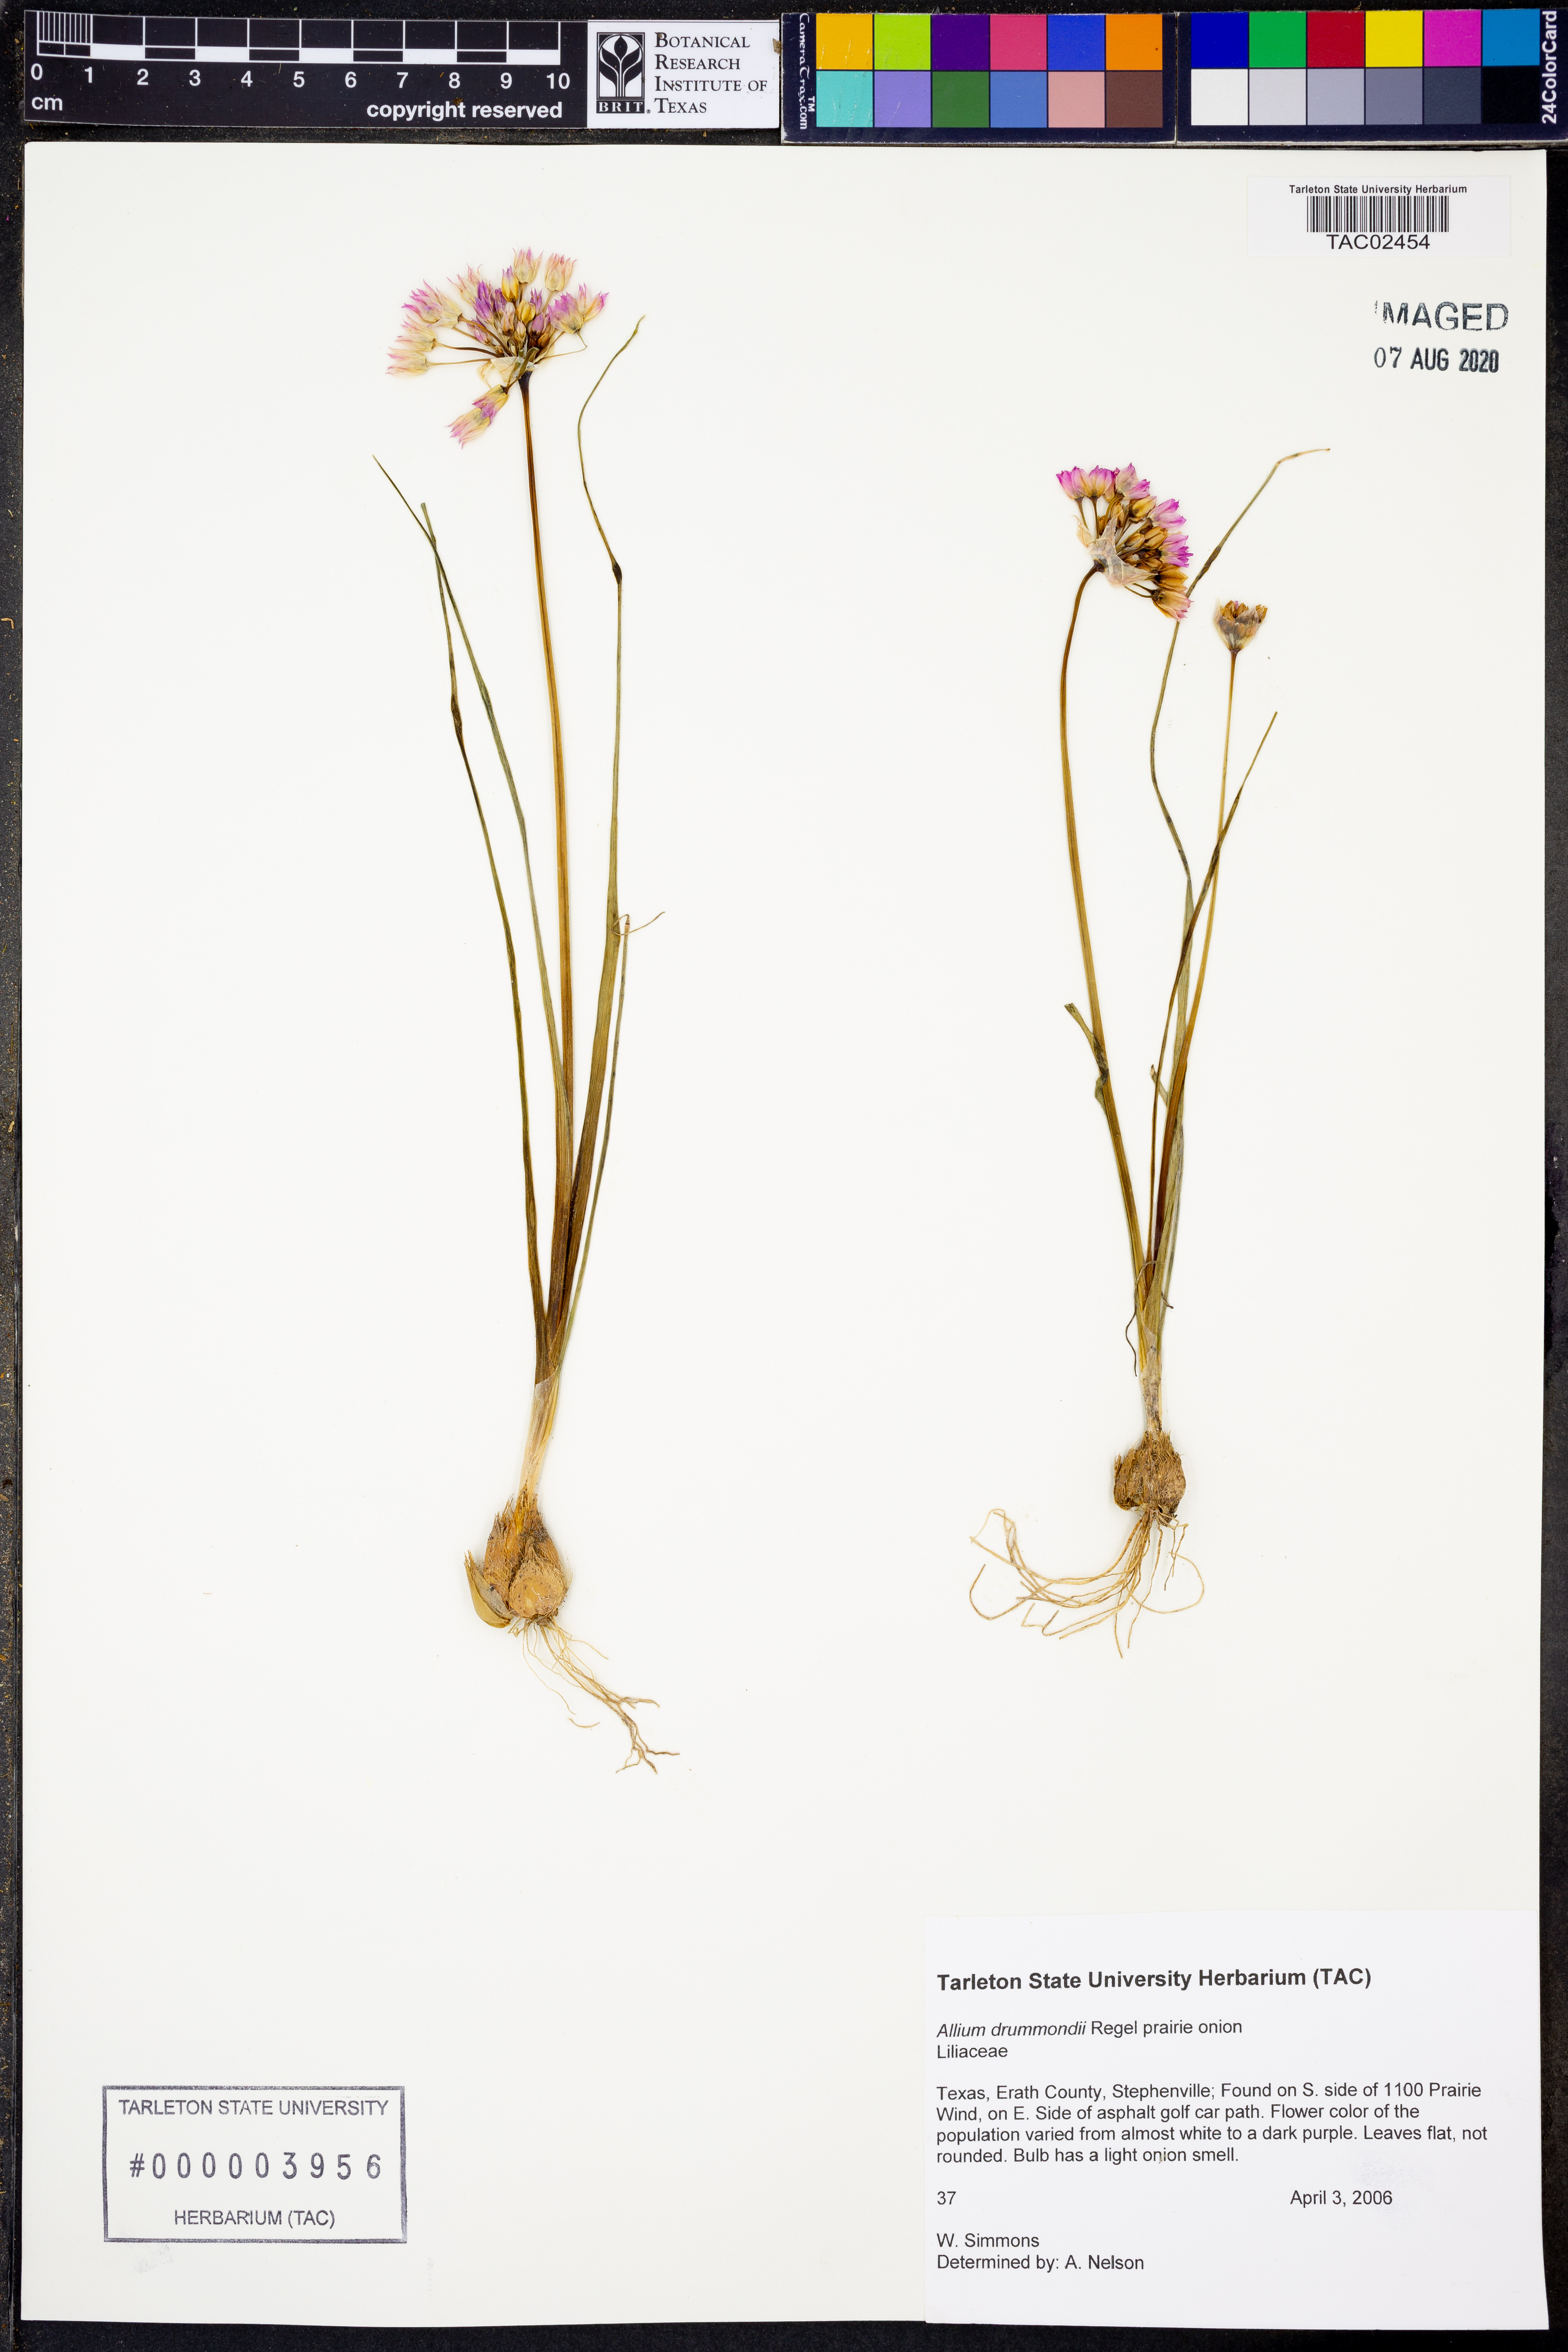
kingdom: Plantae
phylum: Tracheophyta
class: Liliopsida
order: Asparagales
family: Amaryllidaceae
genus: Allium
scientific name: Allium drummondii
